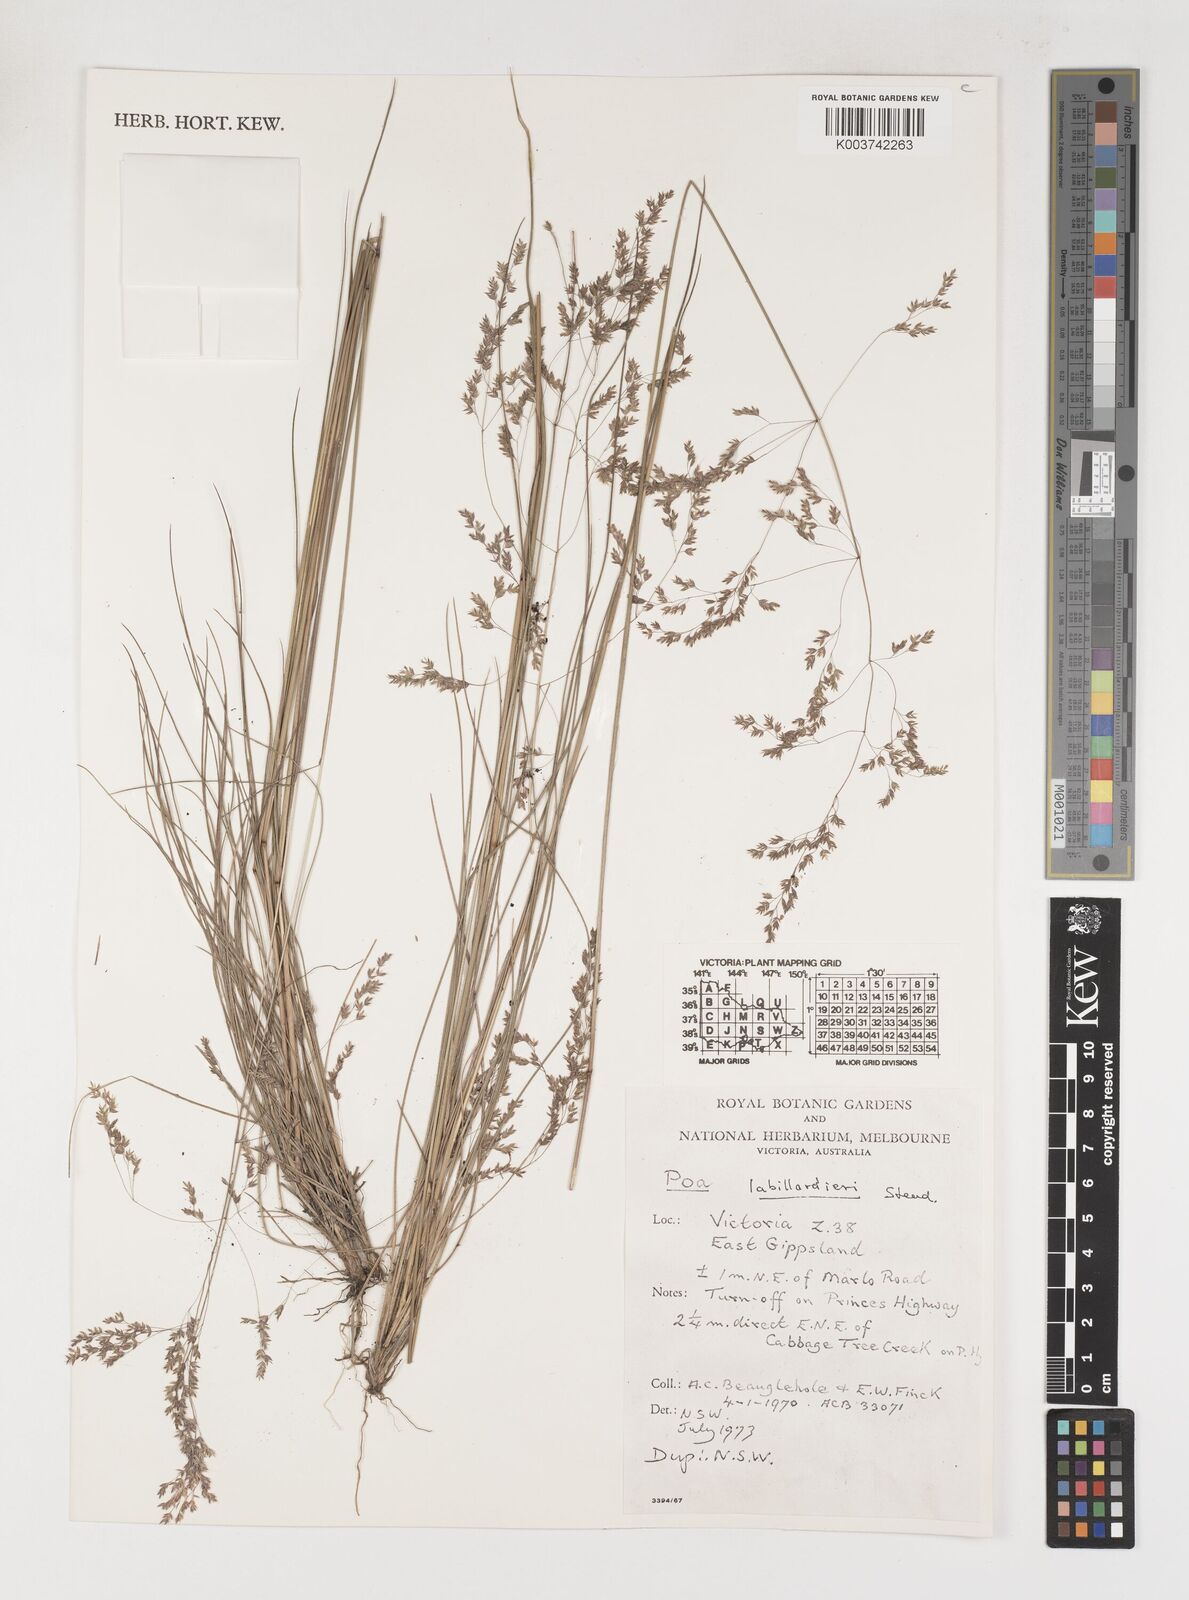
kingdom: Plantae
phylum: Tracheophyta
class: Liliopsida
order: Poales
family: Poaceae
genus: Poa
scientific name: Poa labillardierei
